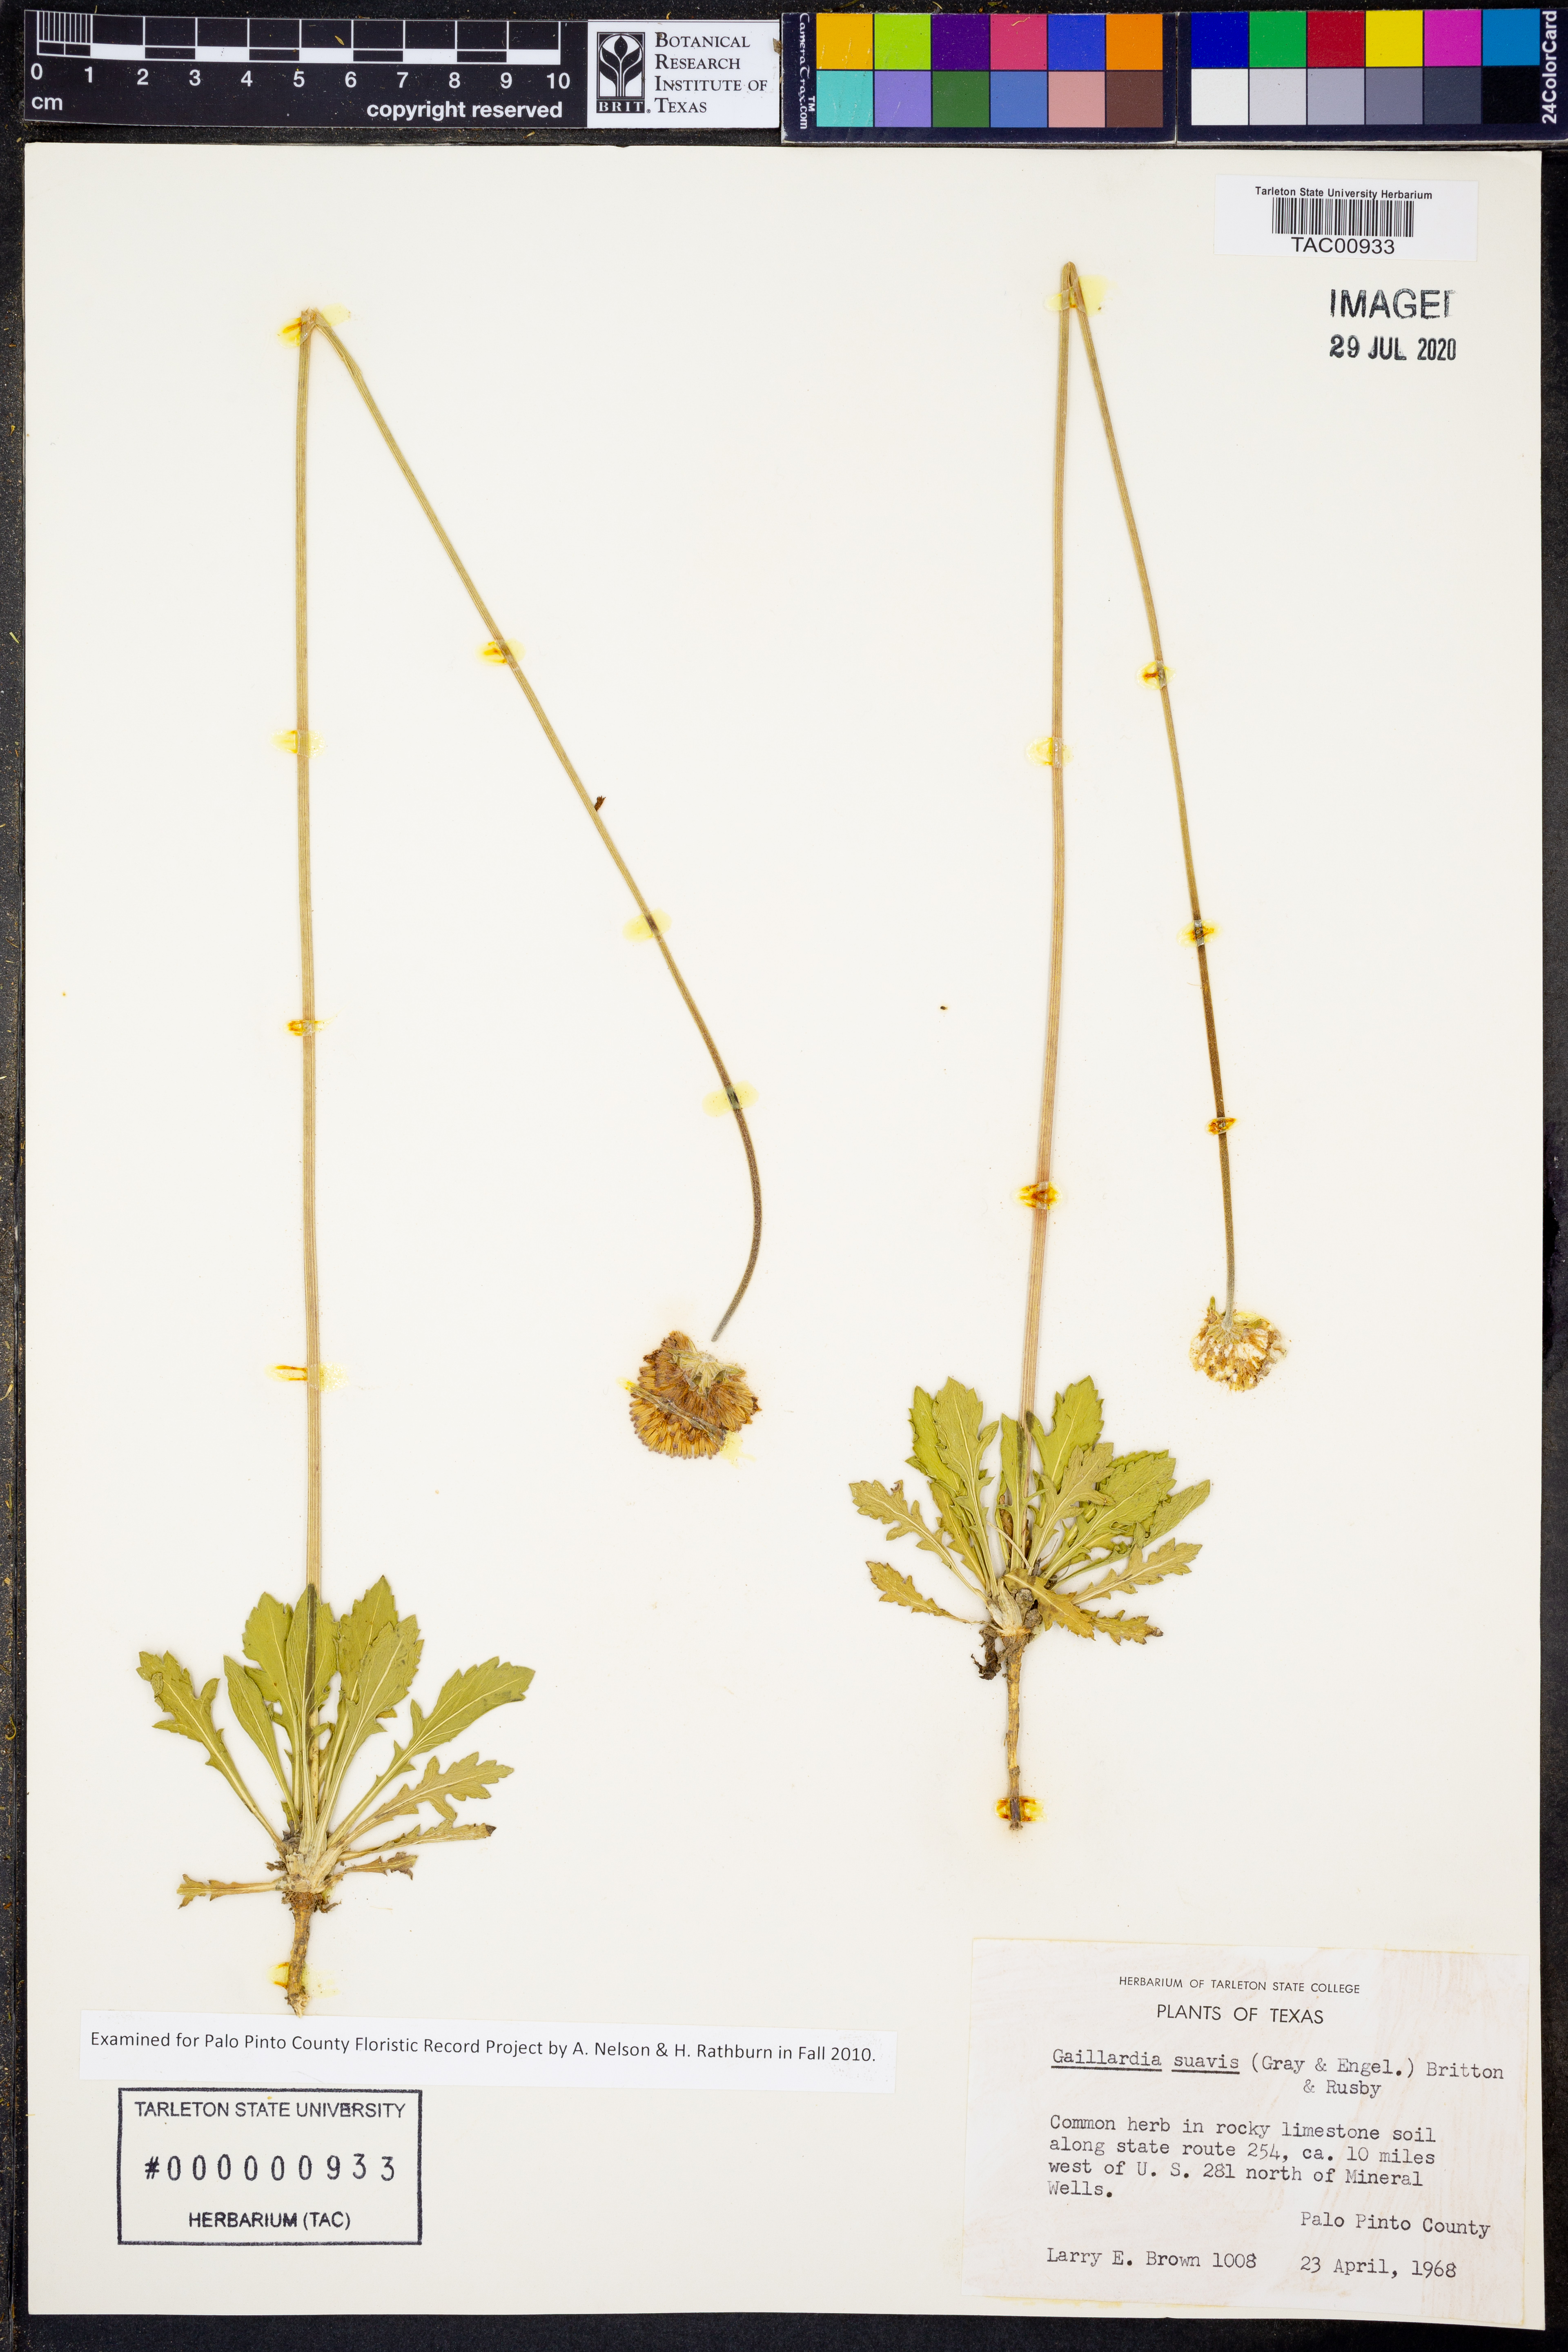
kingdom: Plantae
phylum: Tracheophyta
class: Magnoliopsida
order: Asterales
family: Asteraceae
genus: Gaillardia
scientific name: Gaillardia suavis
